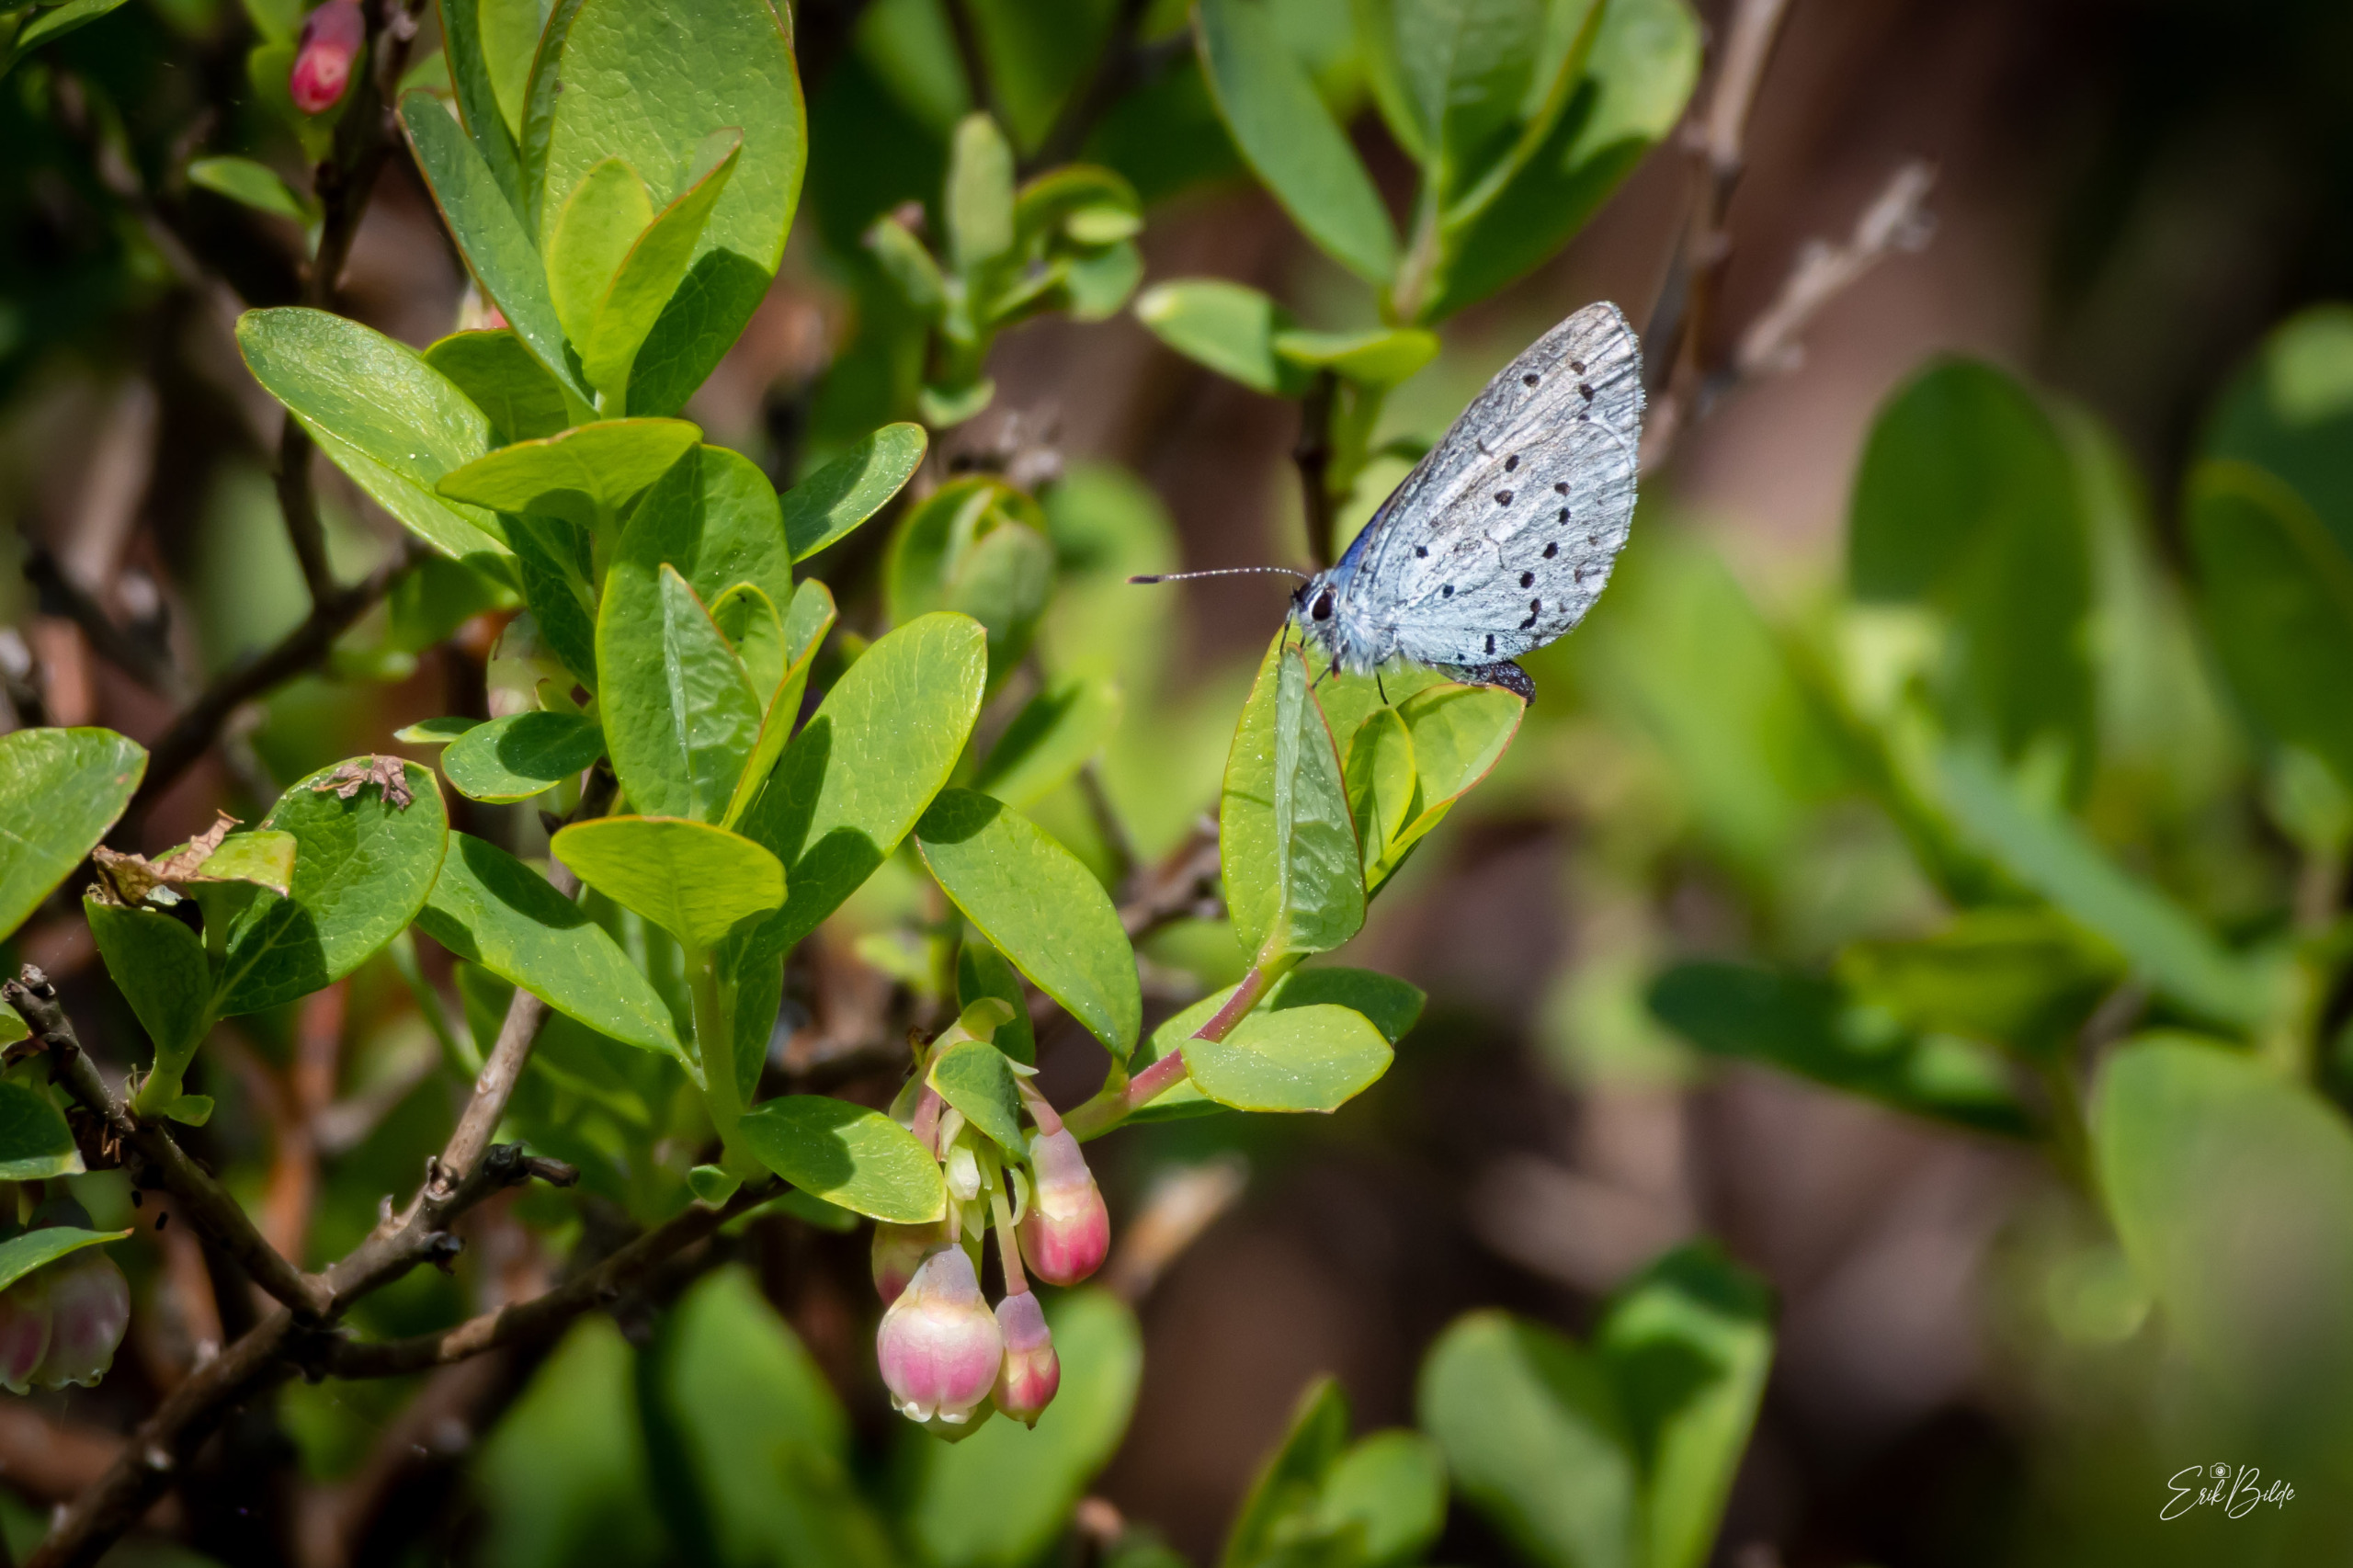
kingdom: Animalia
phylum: Arthropoda
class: Insecta
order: Lepidoptera
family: Lycaenidae
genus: Celastrina
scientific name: Celastrina argiolus
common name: Skovblåfugl
